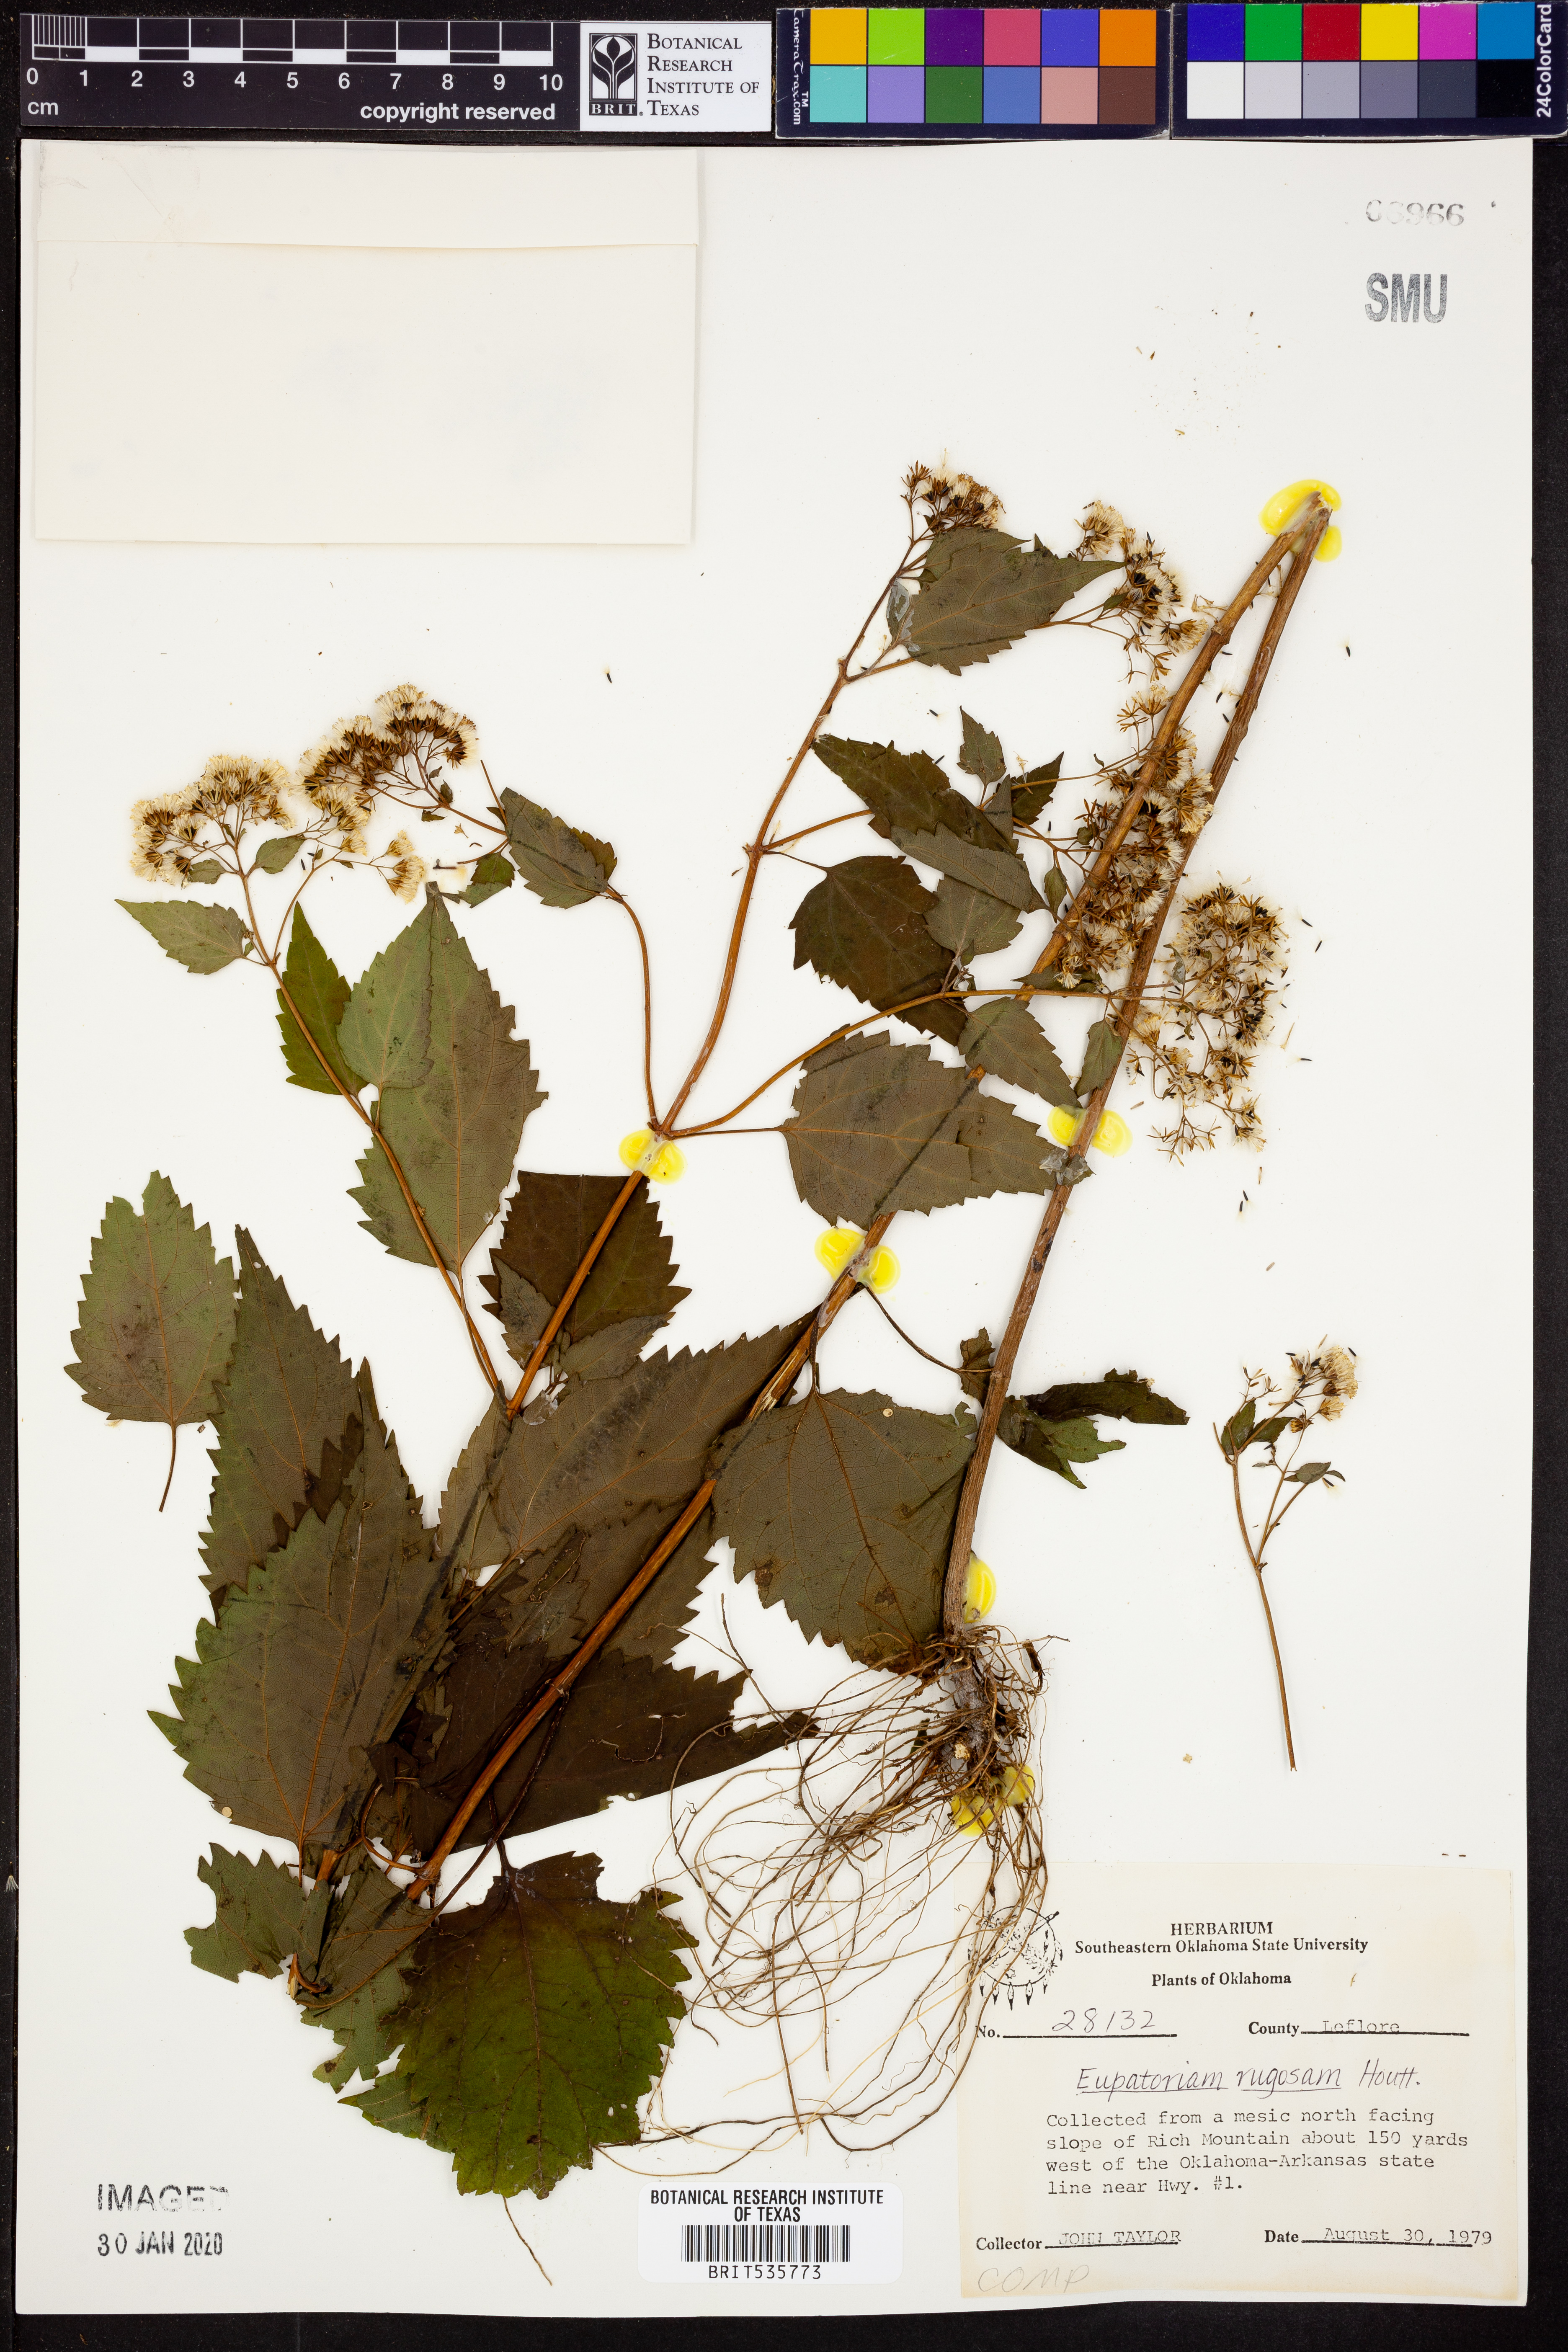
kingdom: Plantae
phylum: Tracheophyta
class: Magnoliopsida
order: Asterales
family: Asteraceae
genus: Cronquistianthus
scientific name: Cronquistianthus bulliferus
